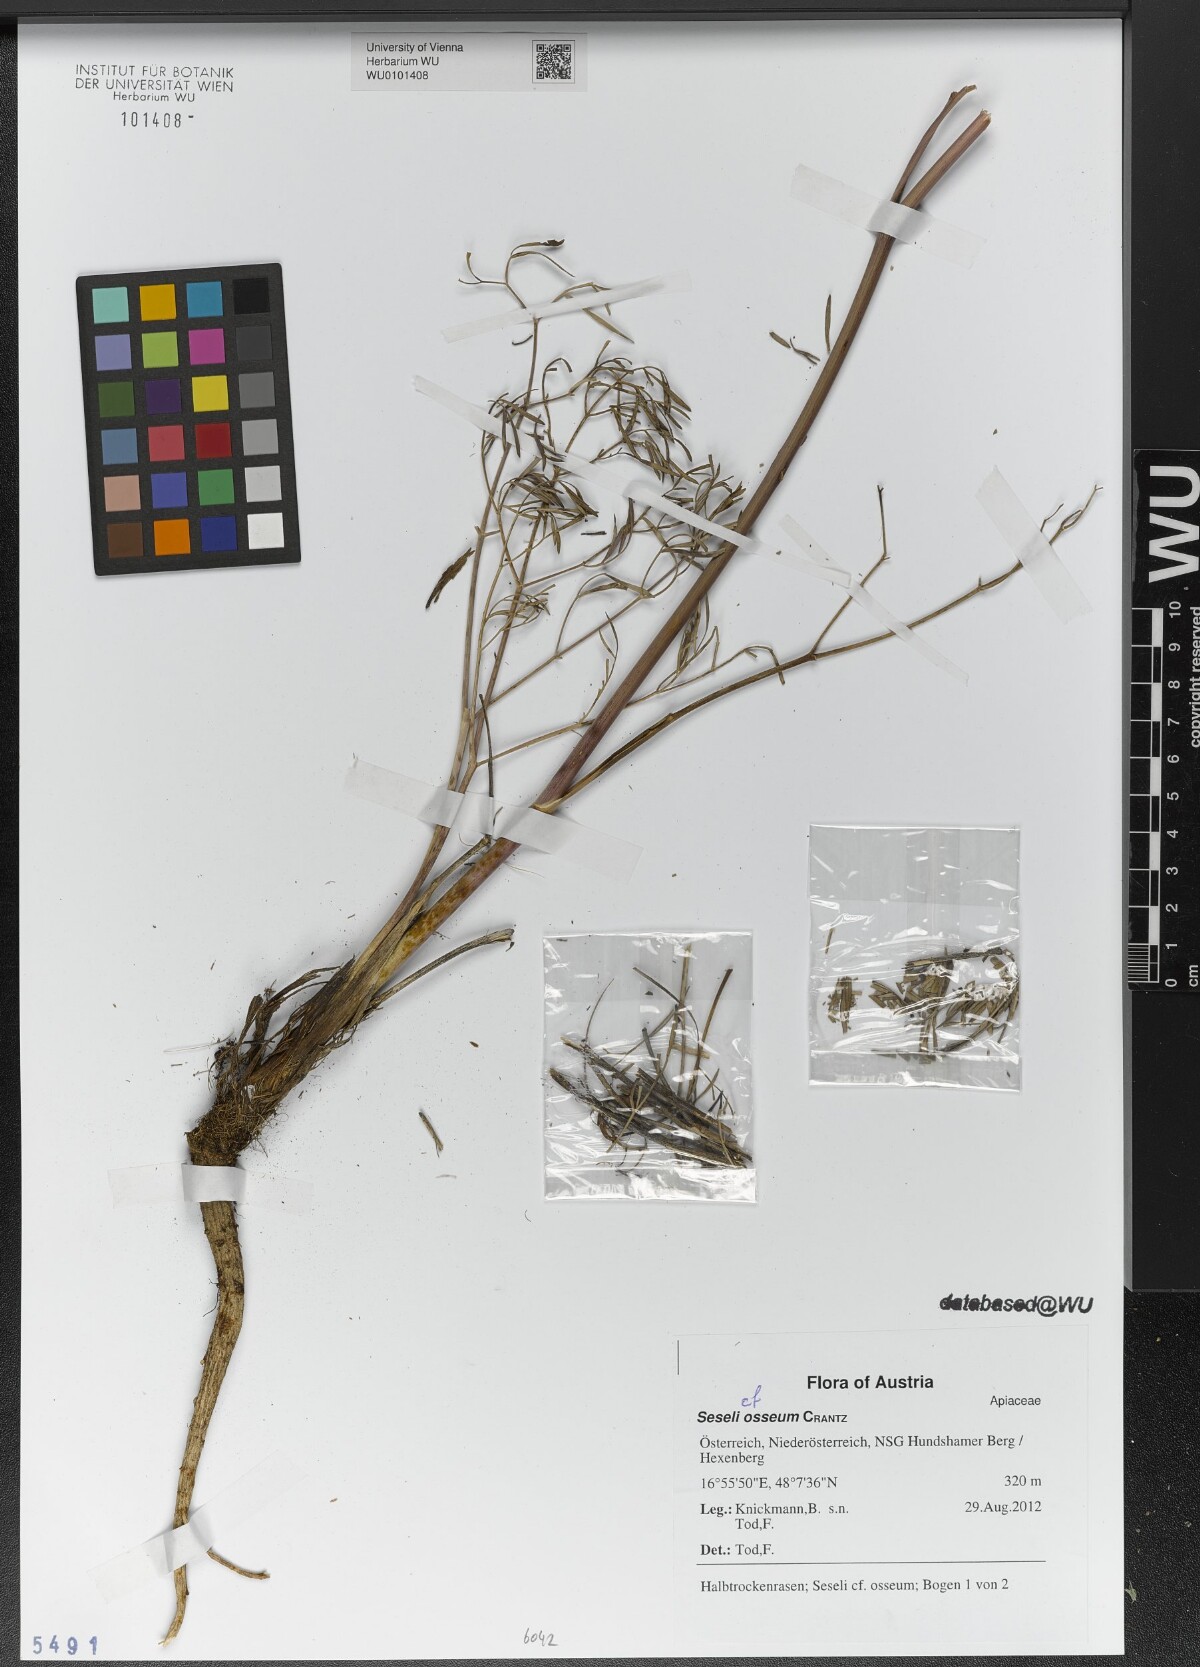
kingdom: Plantae
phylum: Tracheophyta
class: Magnoliopsida
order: Apiales
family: Apiaceae
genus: Seseli
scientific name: Seseli osseum
